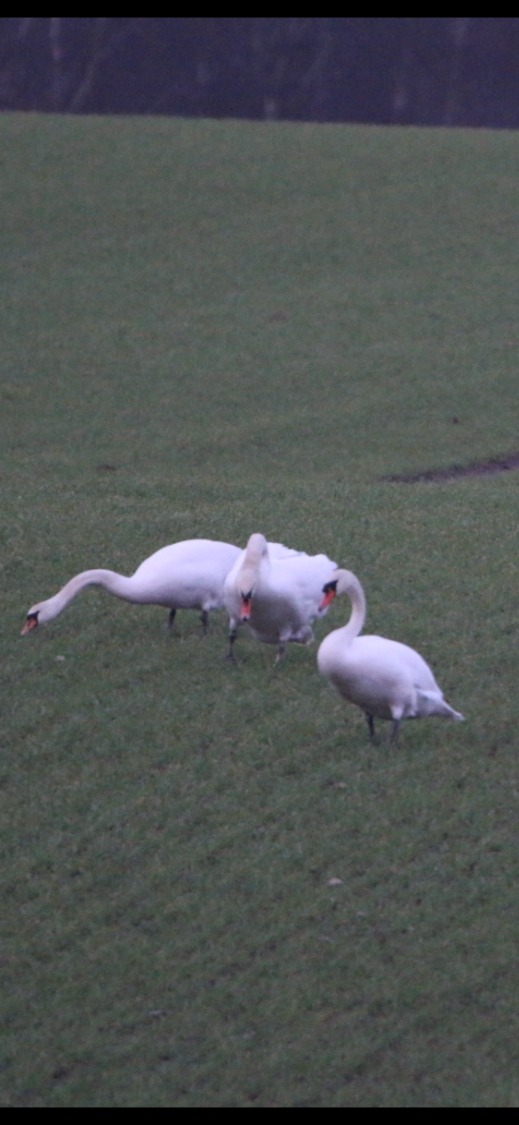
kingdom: Animalia
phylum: Chordata
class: Aves
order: Anseriformes
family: Anatidae
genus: Cygnus
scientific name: Cygnus olor
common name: Knopsvane
